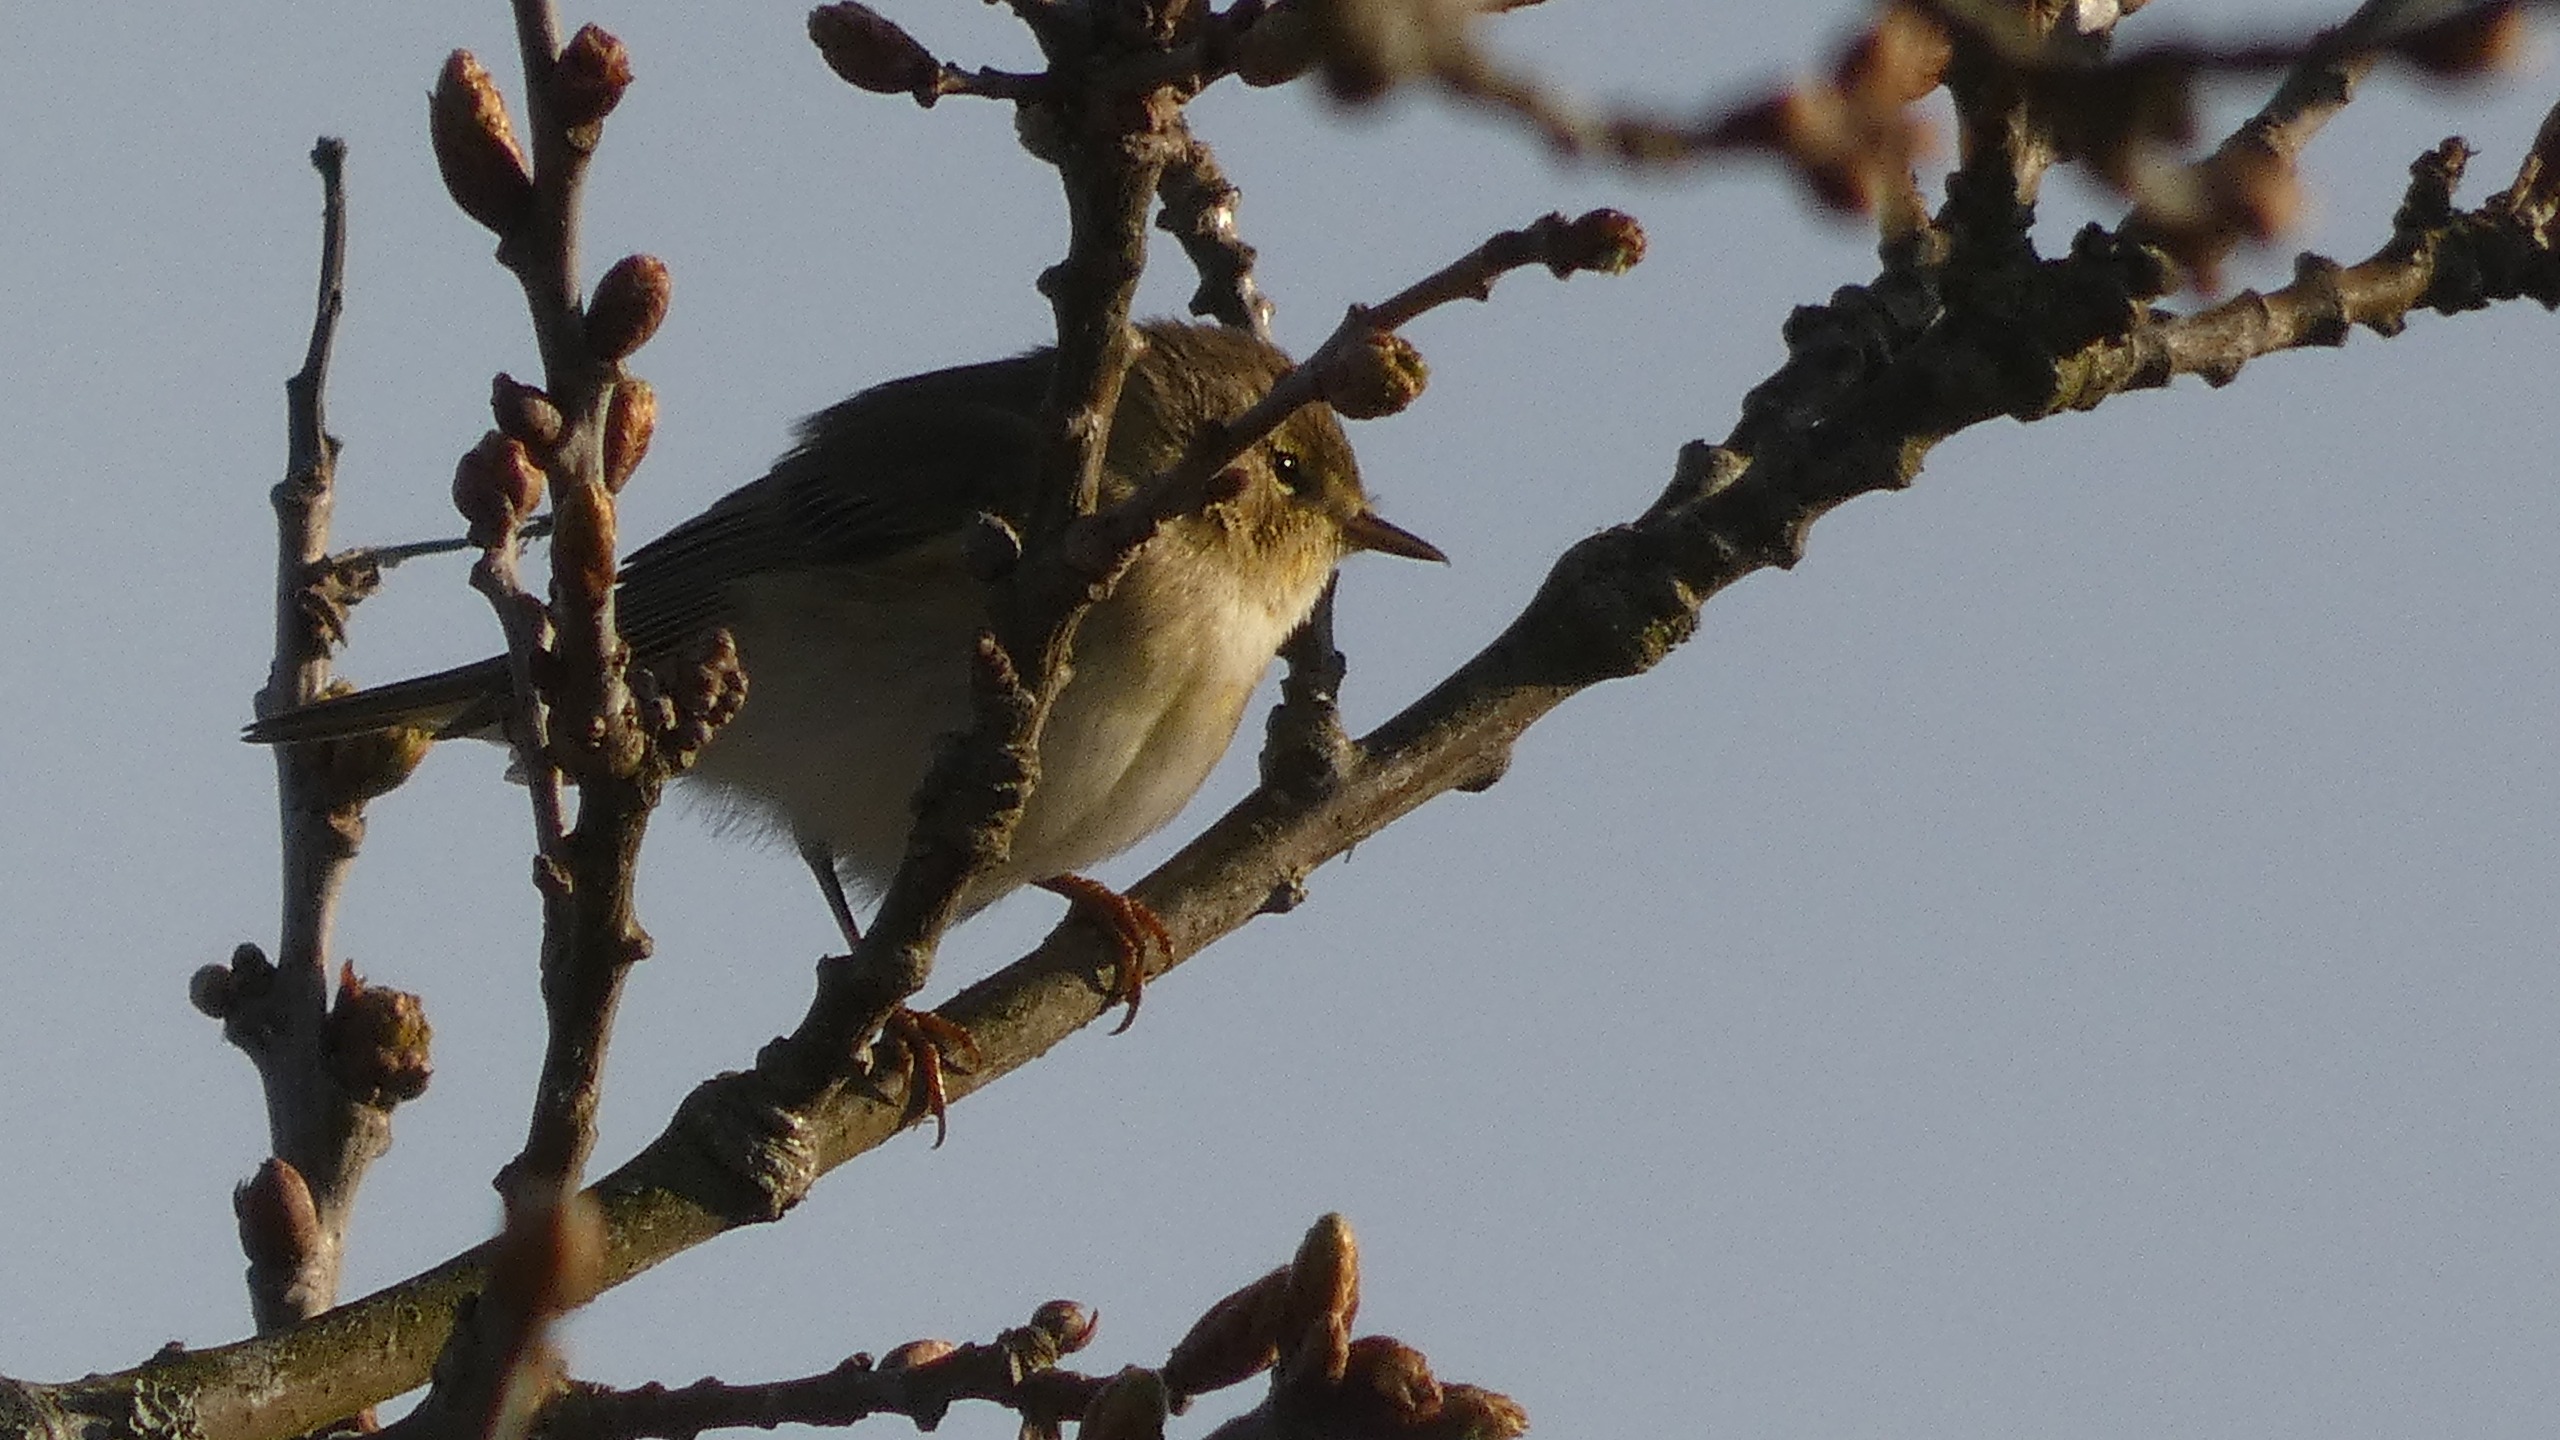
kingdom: Animalia
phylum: Chordata
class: Aves
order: Passeriformes
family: Phylloscopidae
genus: Phylloscopus
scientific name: Phylloscopus collybita
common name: Gransanger
